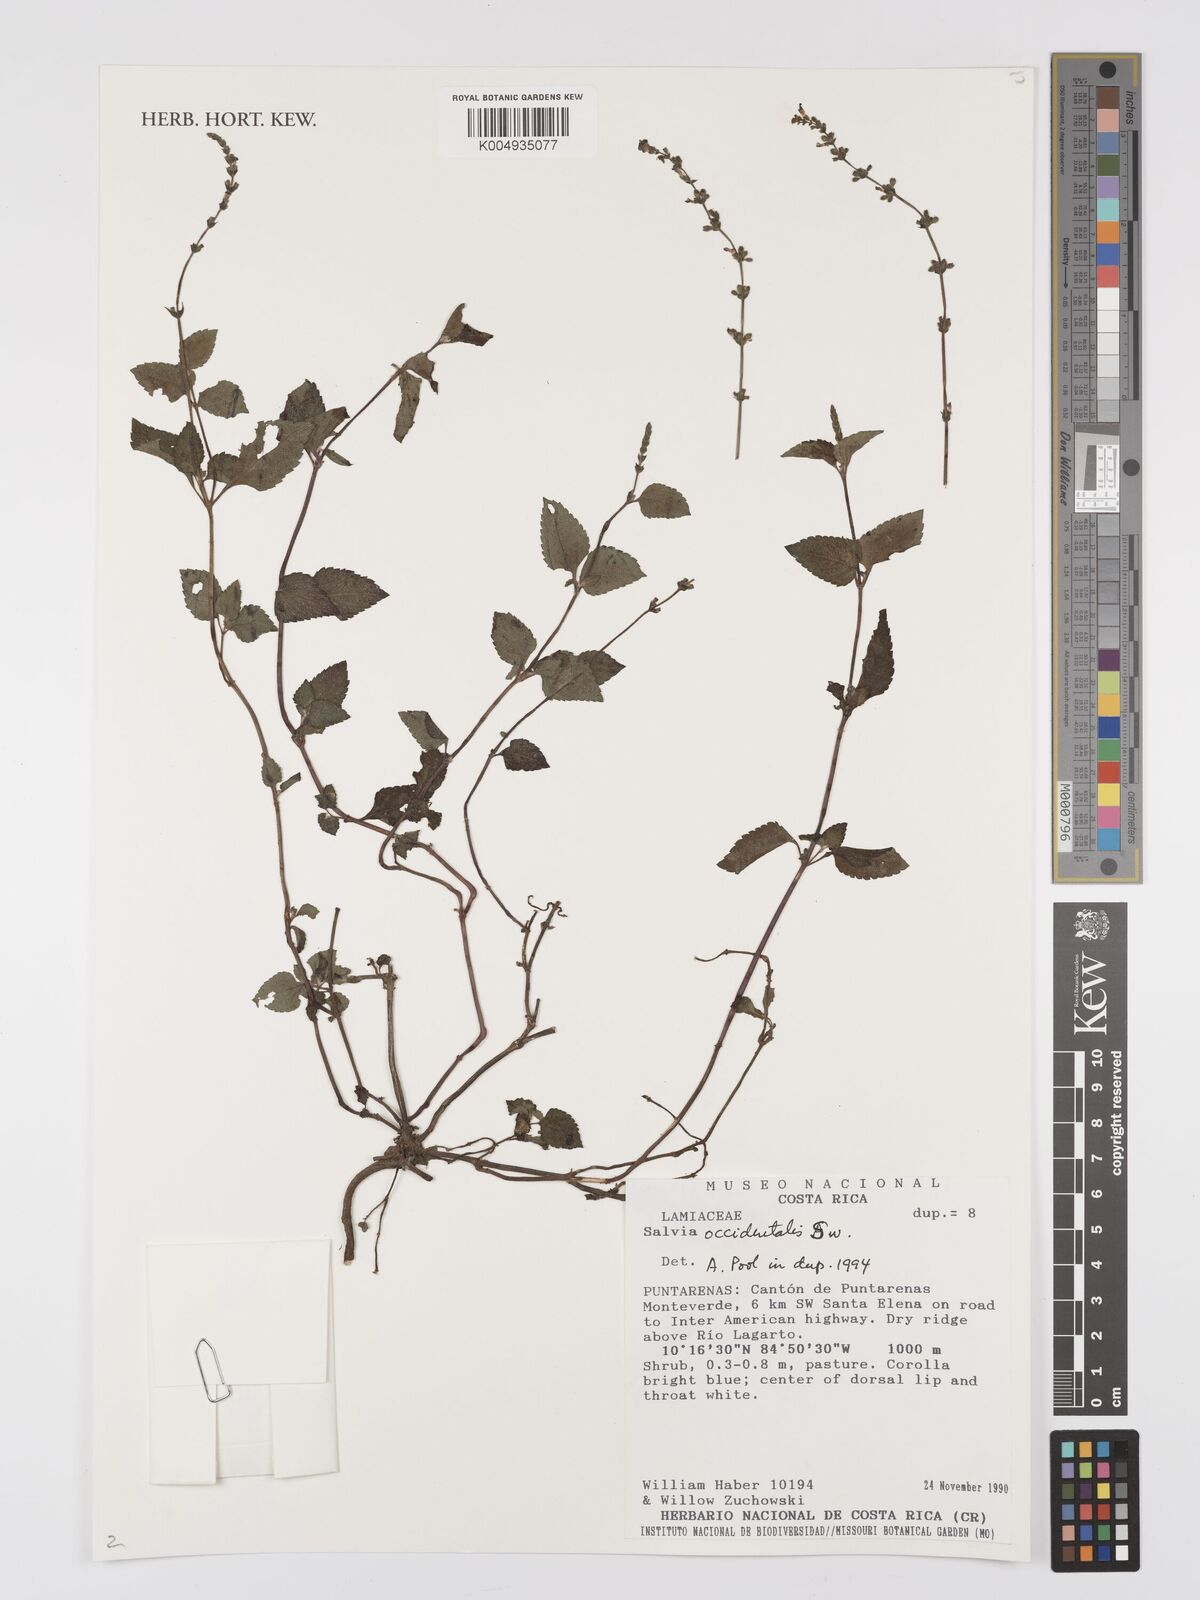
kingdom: Plantae
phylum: Tracheophyta
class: Magnoliopsida
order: Lamiales
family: Lamiaceae
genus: Salvia
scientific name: Salvia occidentalis
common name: West indian sage
